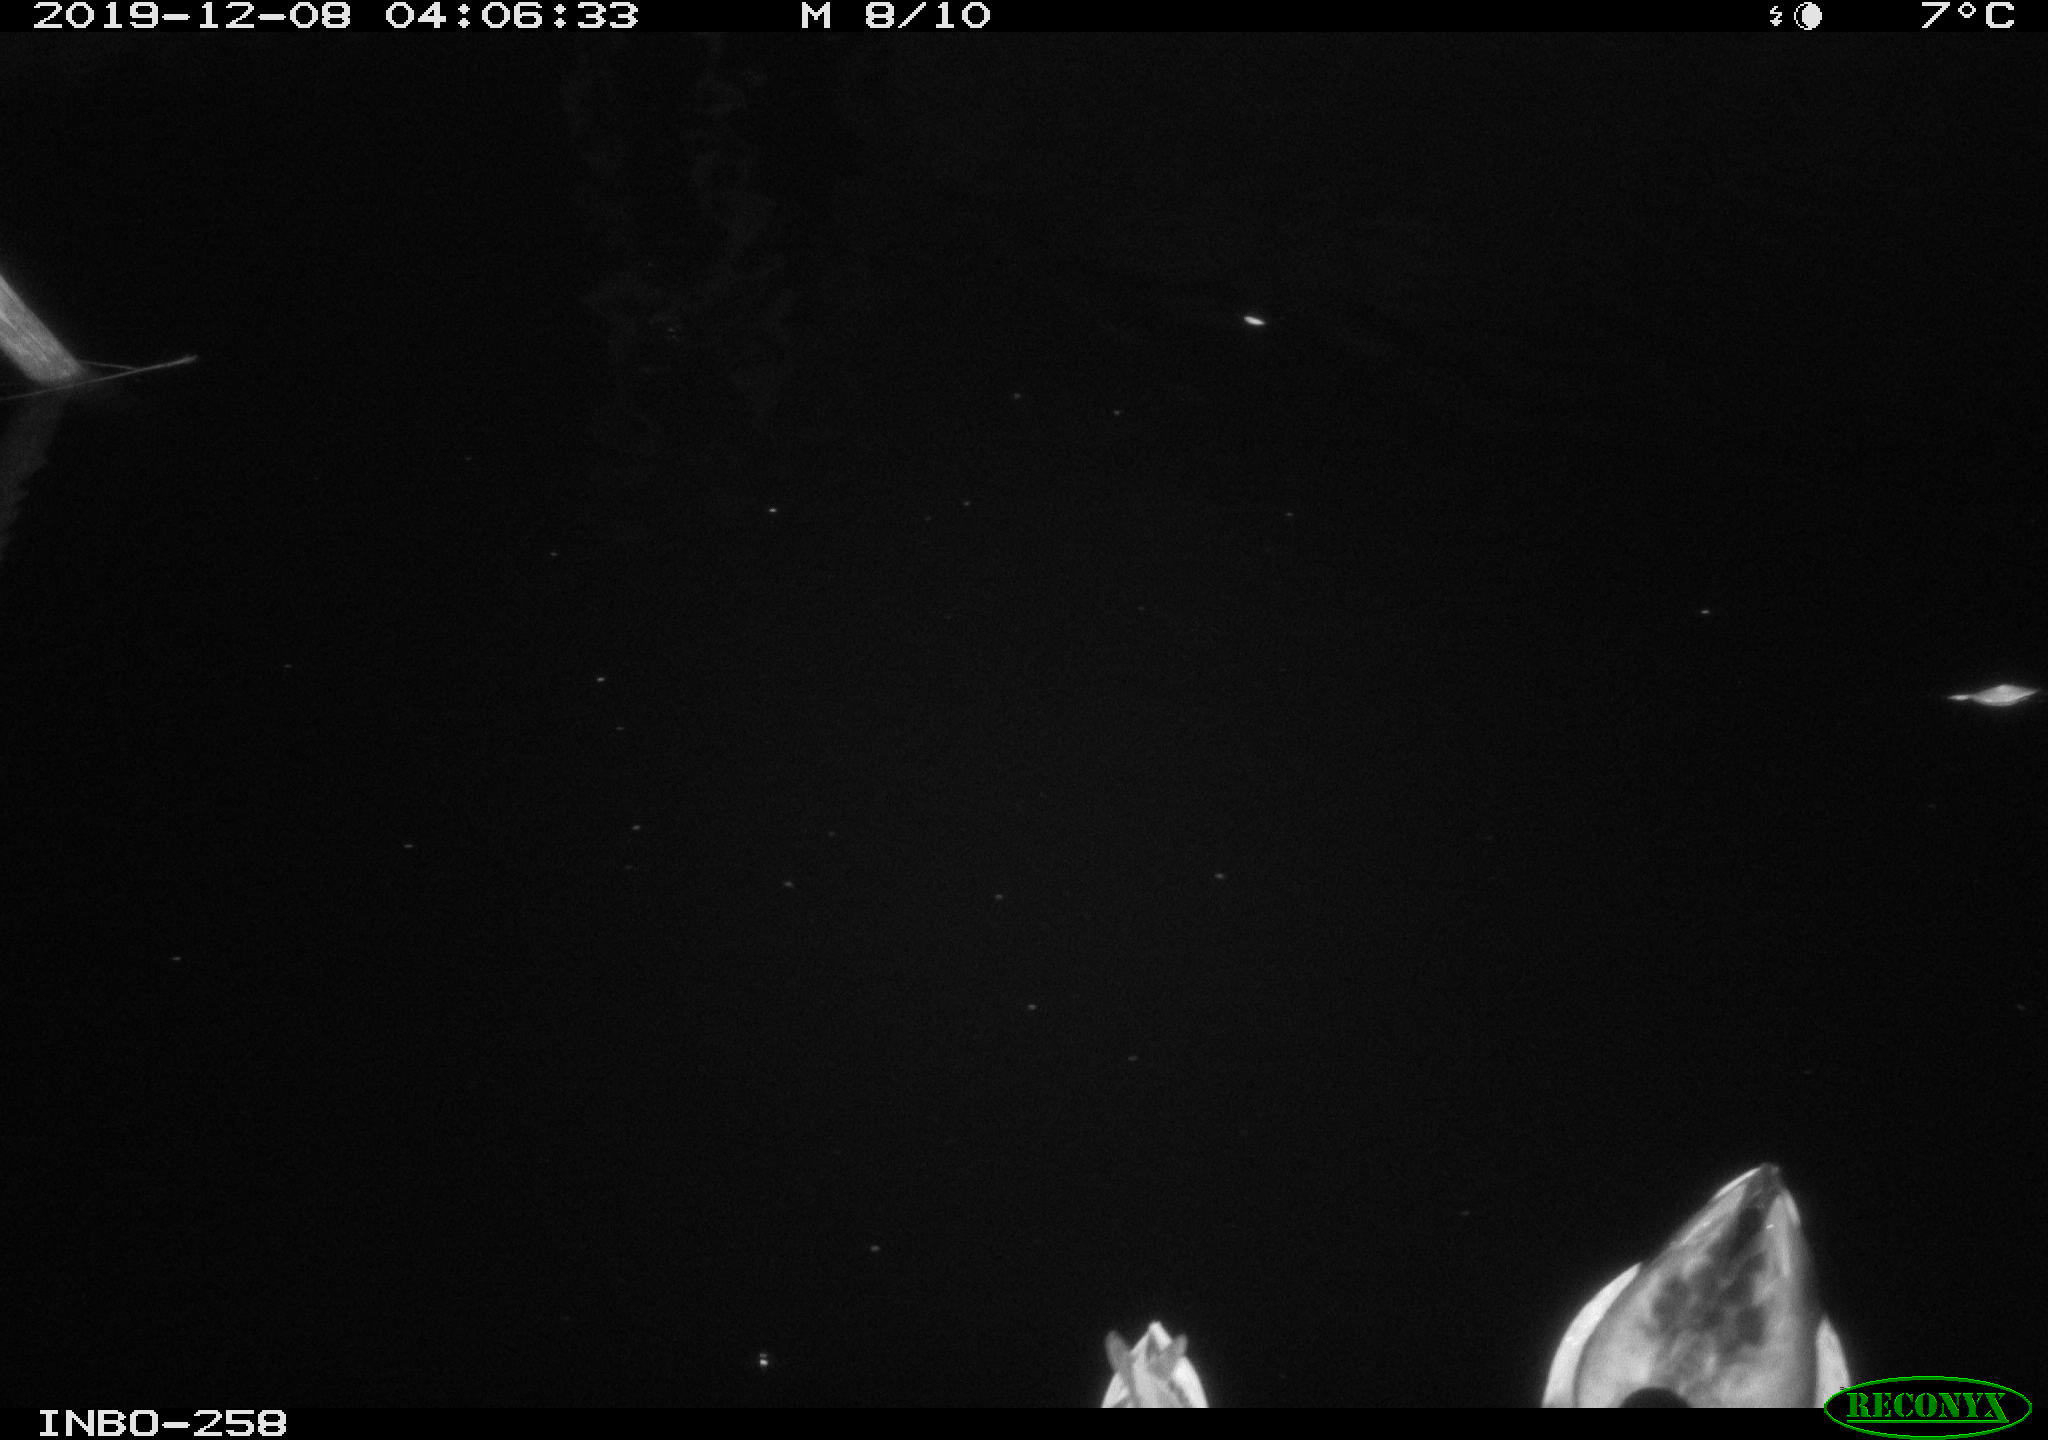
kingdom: Animalia
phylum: Chordata
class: Aves
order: Anseriformes
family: Anatidae
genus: Anas
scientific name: Anas platyrhynchos
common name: Mallard
